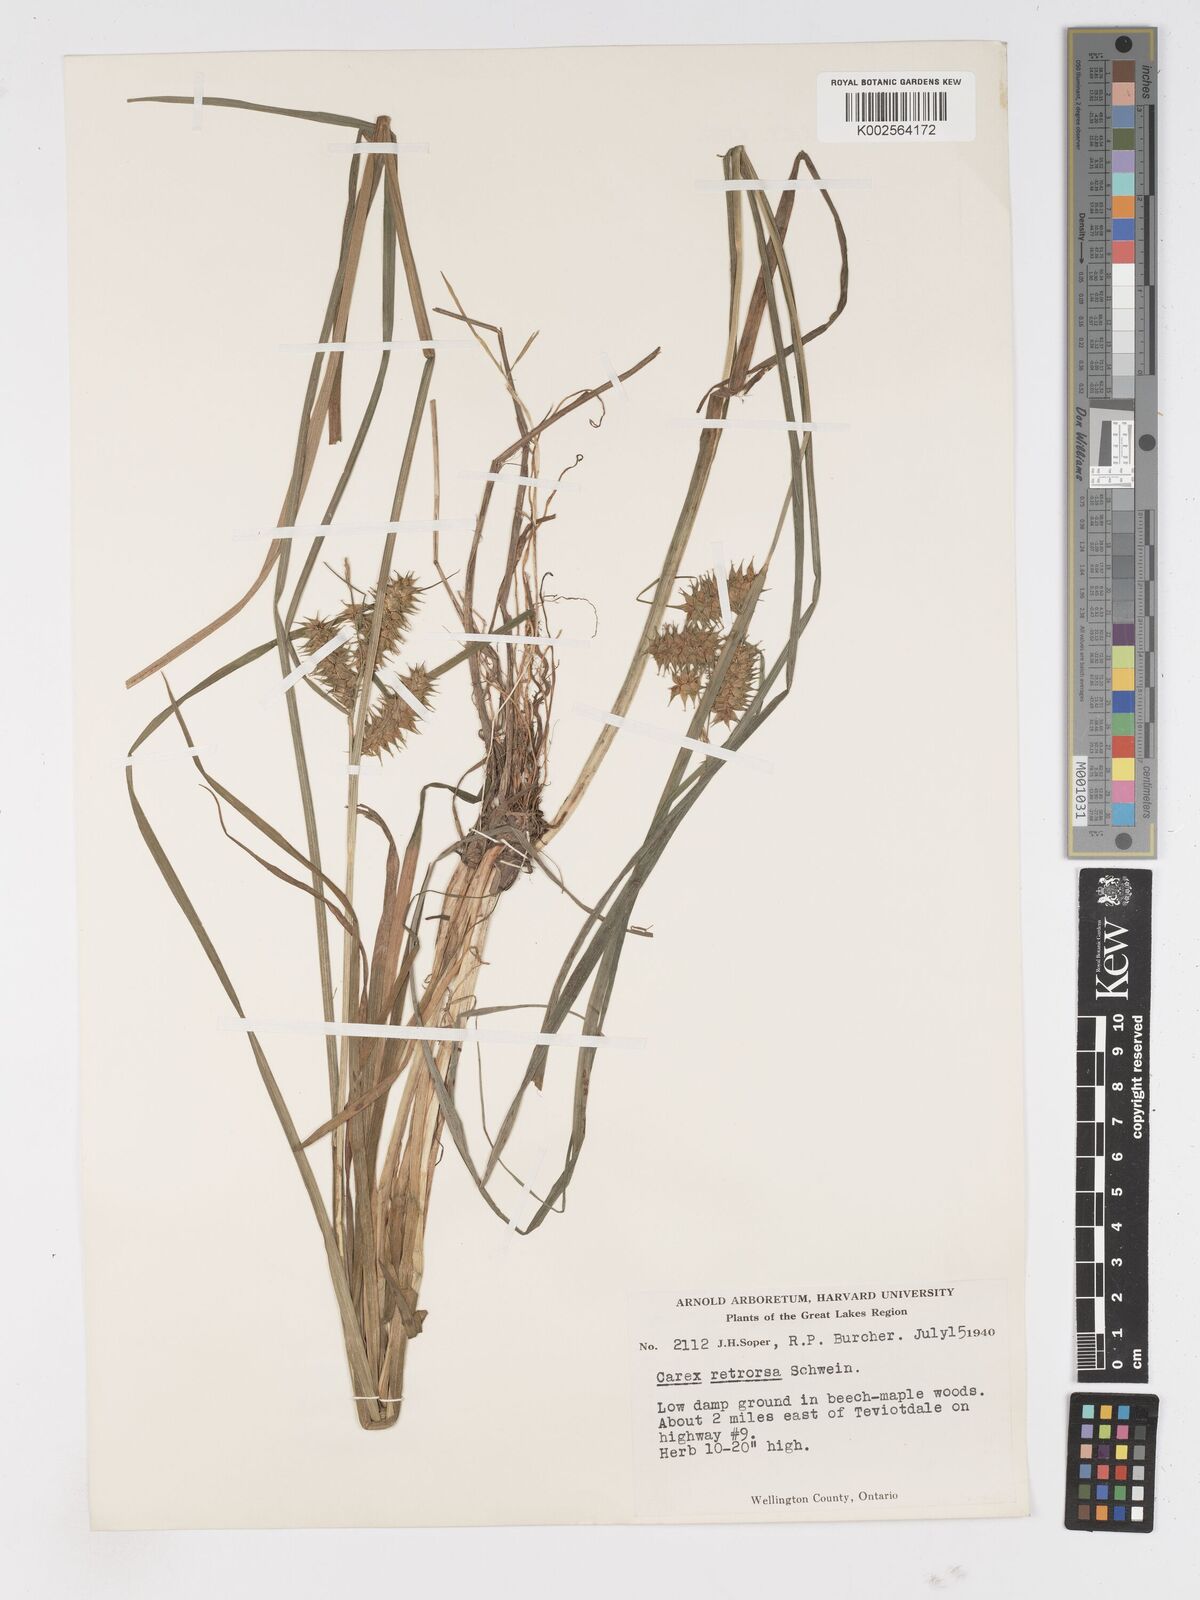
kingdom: Plantae
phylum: Tracheophyta
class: Liliopsida
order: Poales
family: Cyperaceae
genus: Carex
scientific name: Carex retrorsa
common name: Knot-sheath sedge
